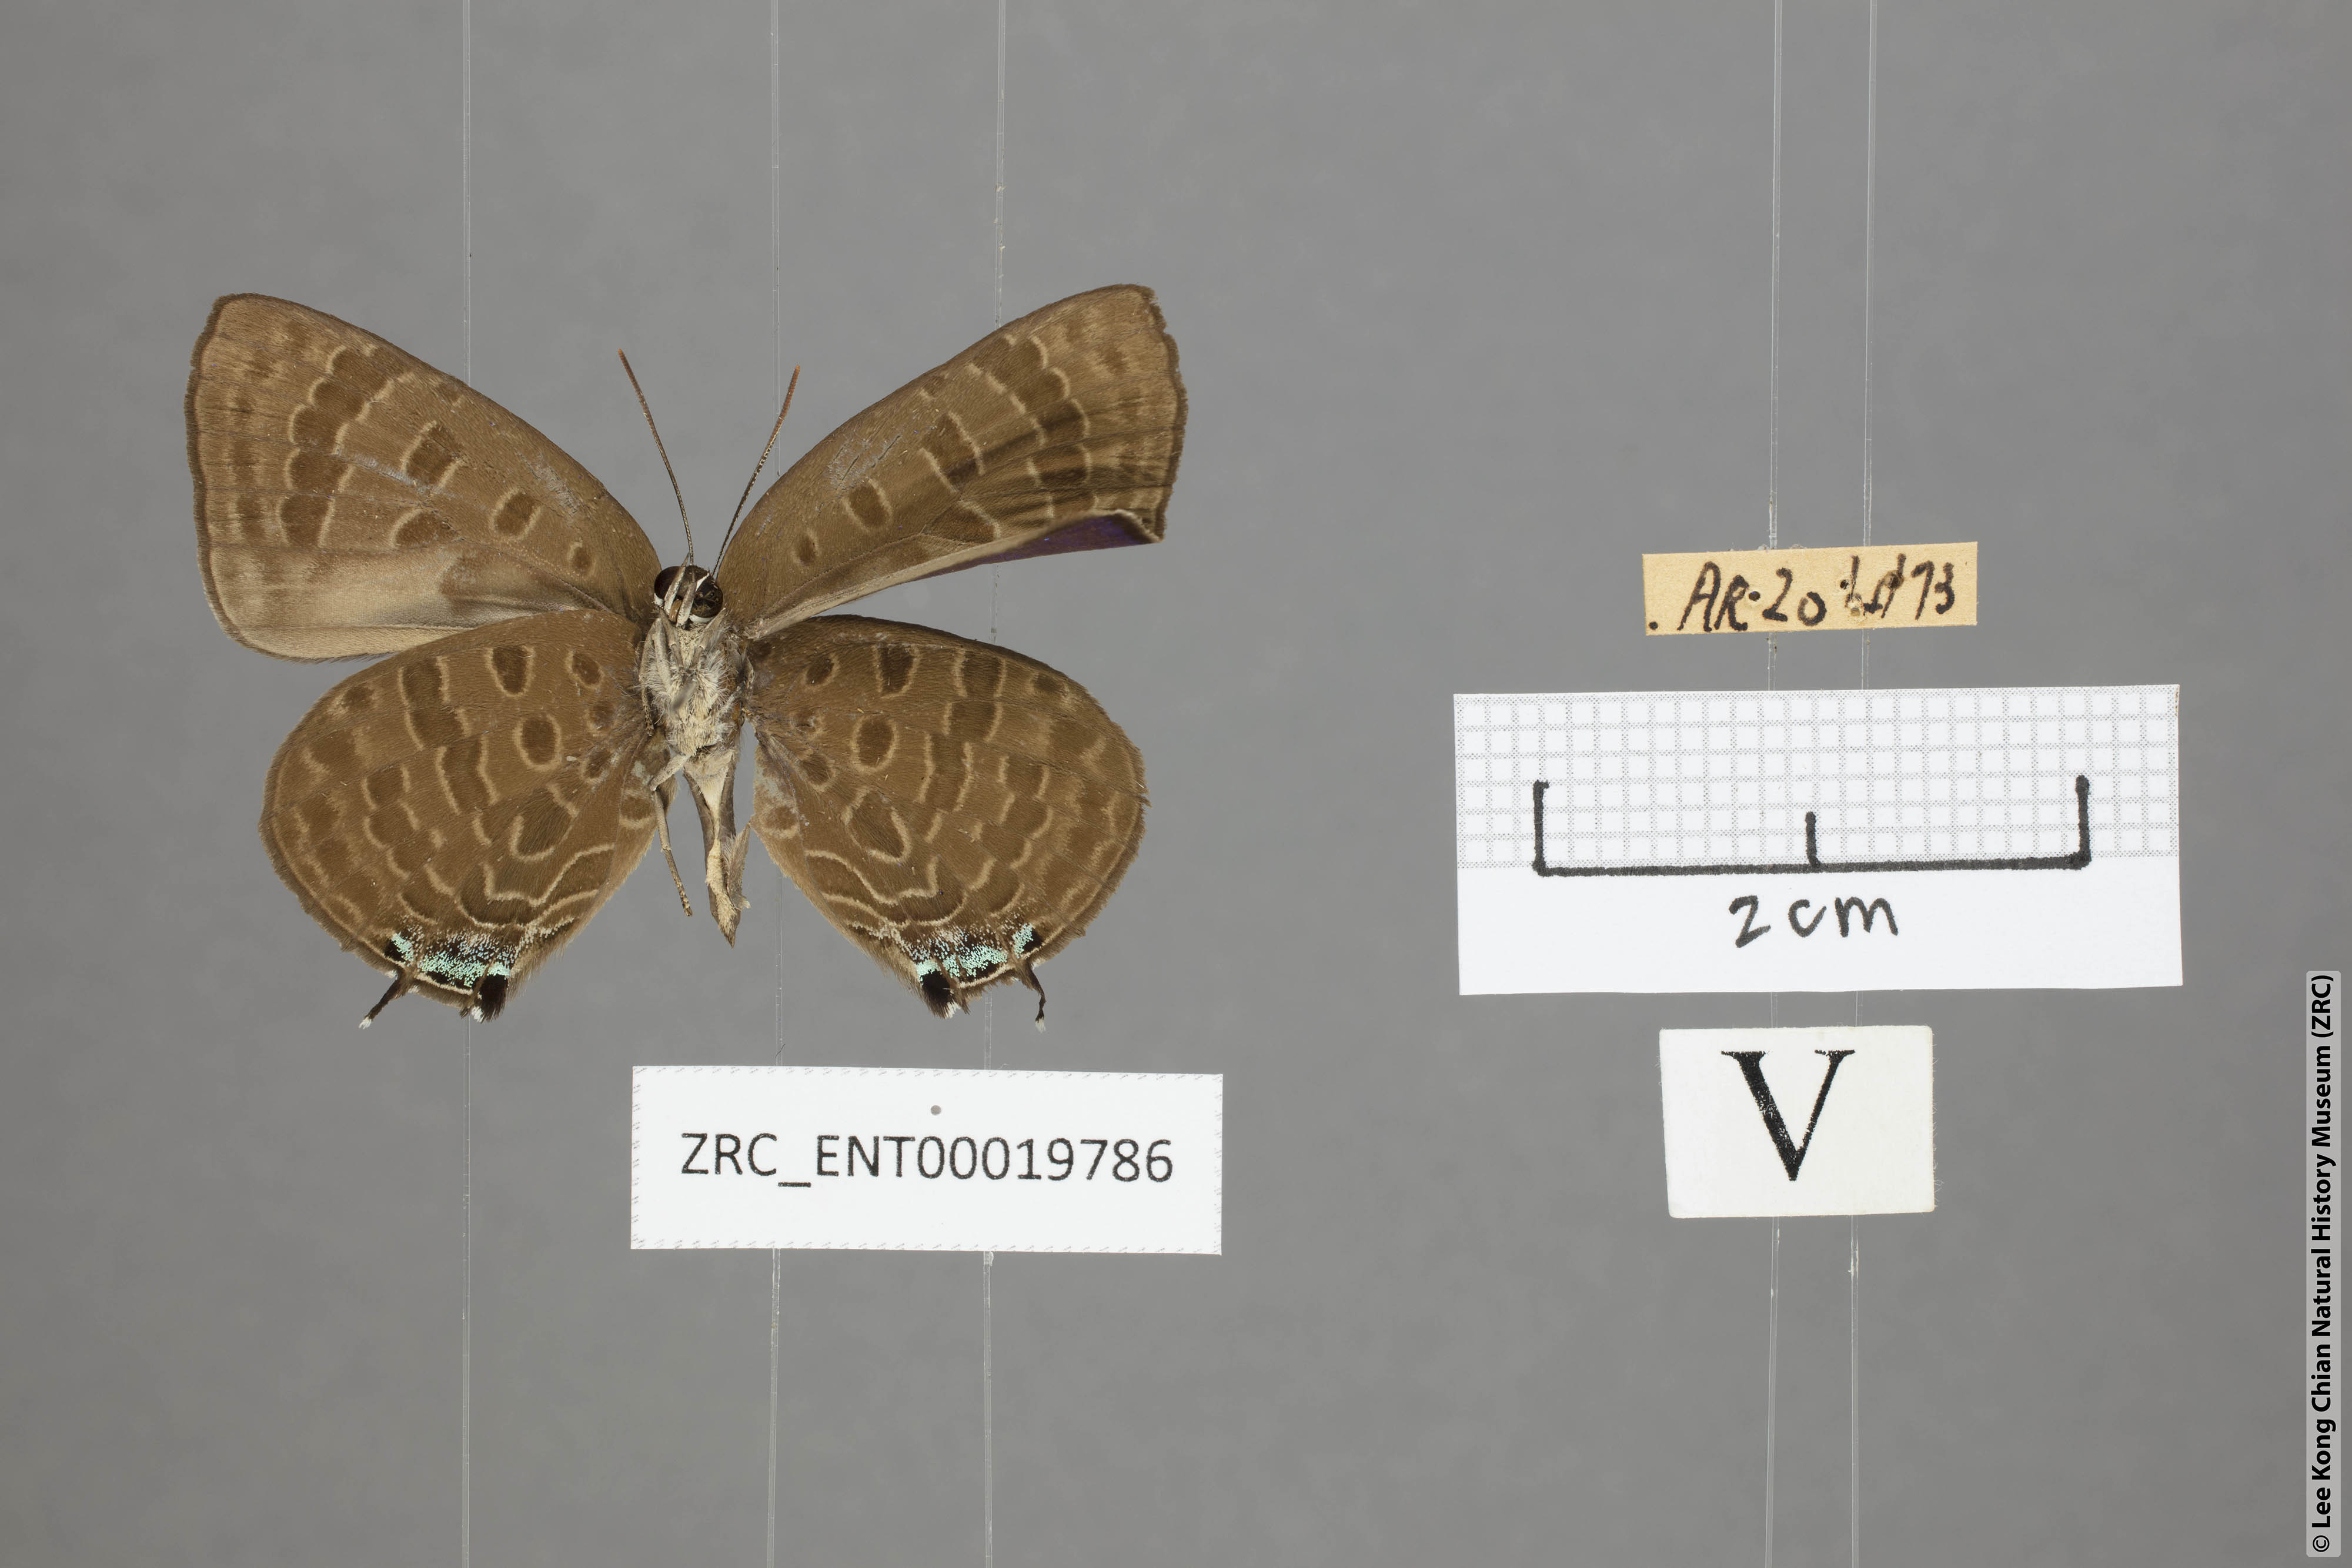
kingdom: Animalia
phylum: Arthropoda
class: Insecta
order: Lepidoptera
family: Lycaenidae
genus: Arhopala
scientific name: Arhopala phaenops
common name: Sumatran oakblue
